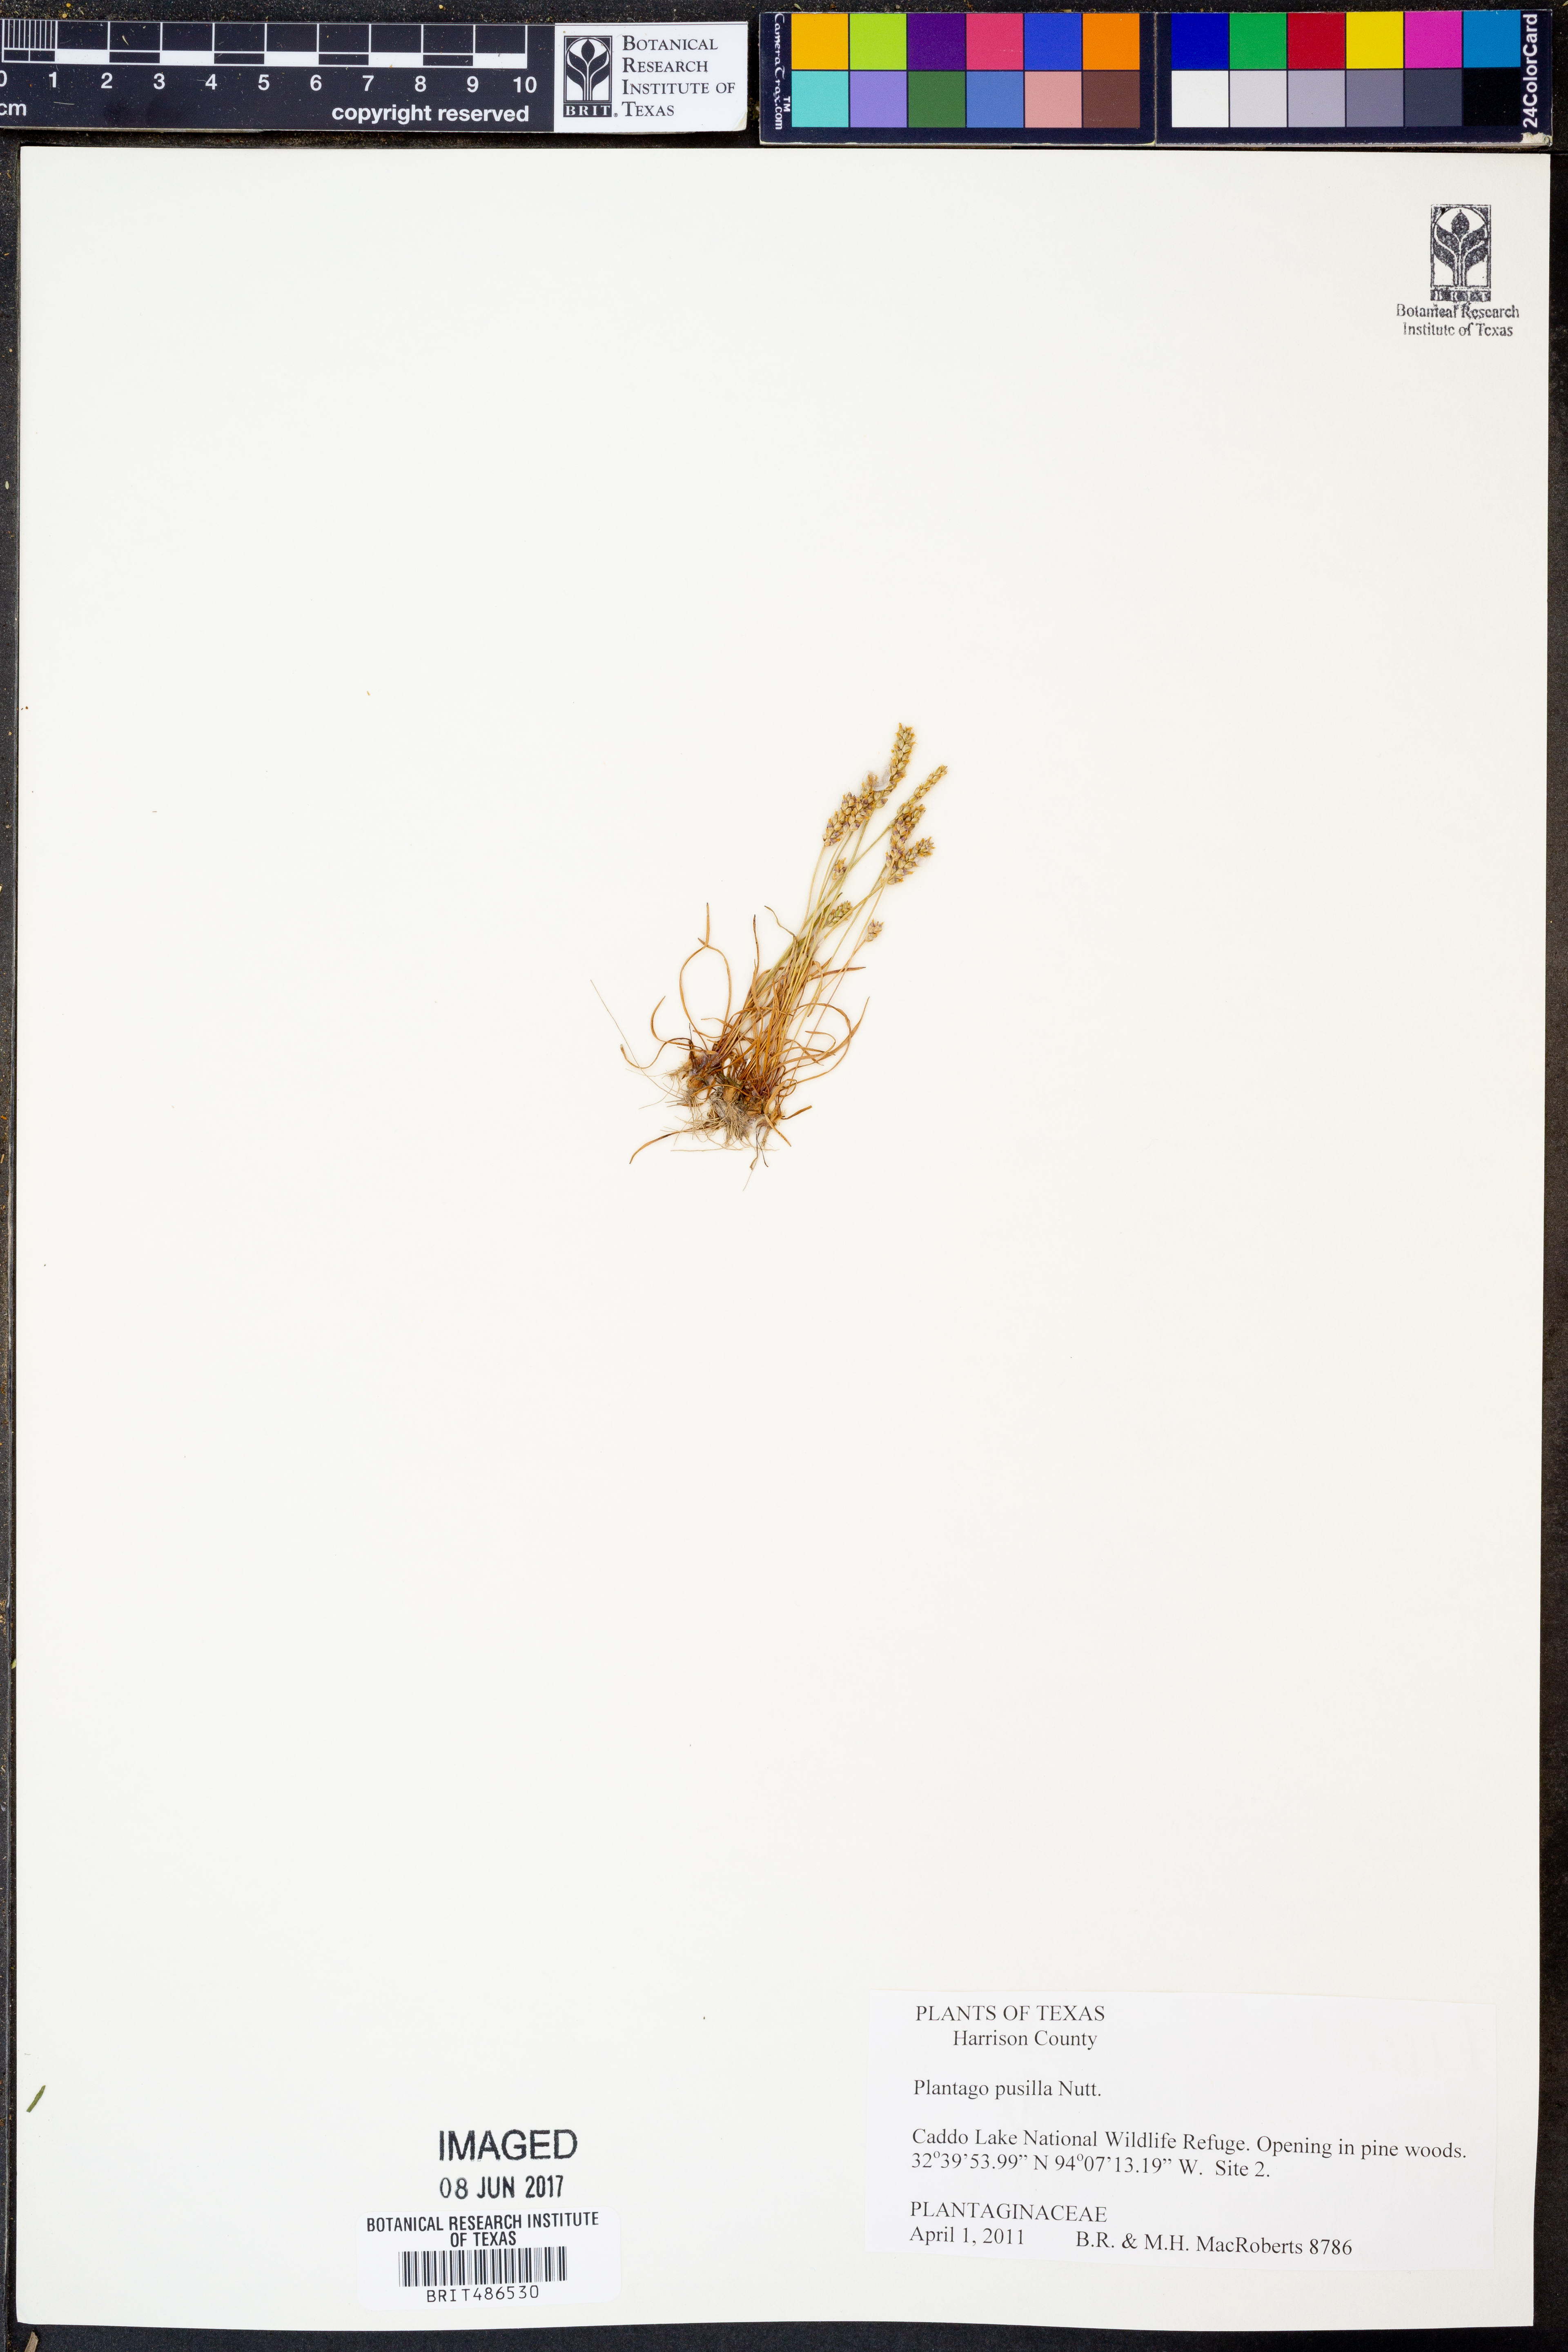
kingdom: Plantae
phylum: Tracheophyta
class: Magnoliopsida
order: Lamiales
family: Plantaginaceae
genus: Plantago
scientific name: Plantago pusilla
